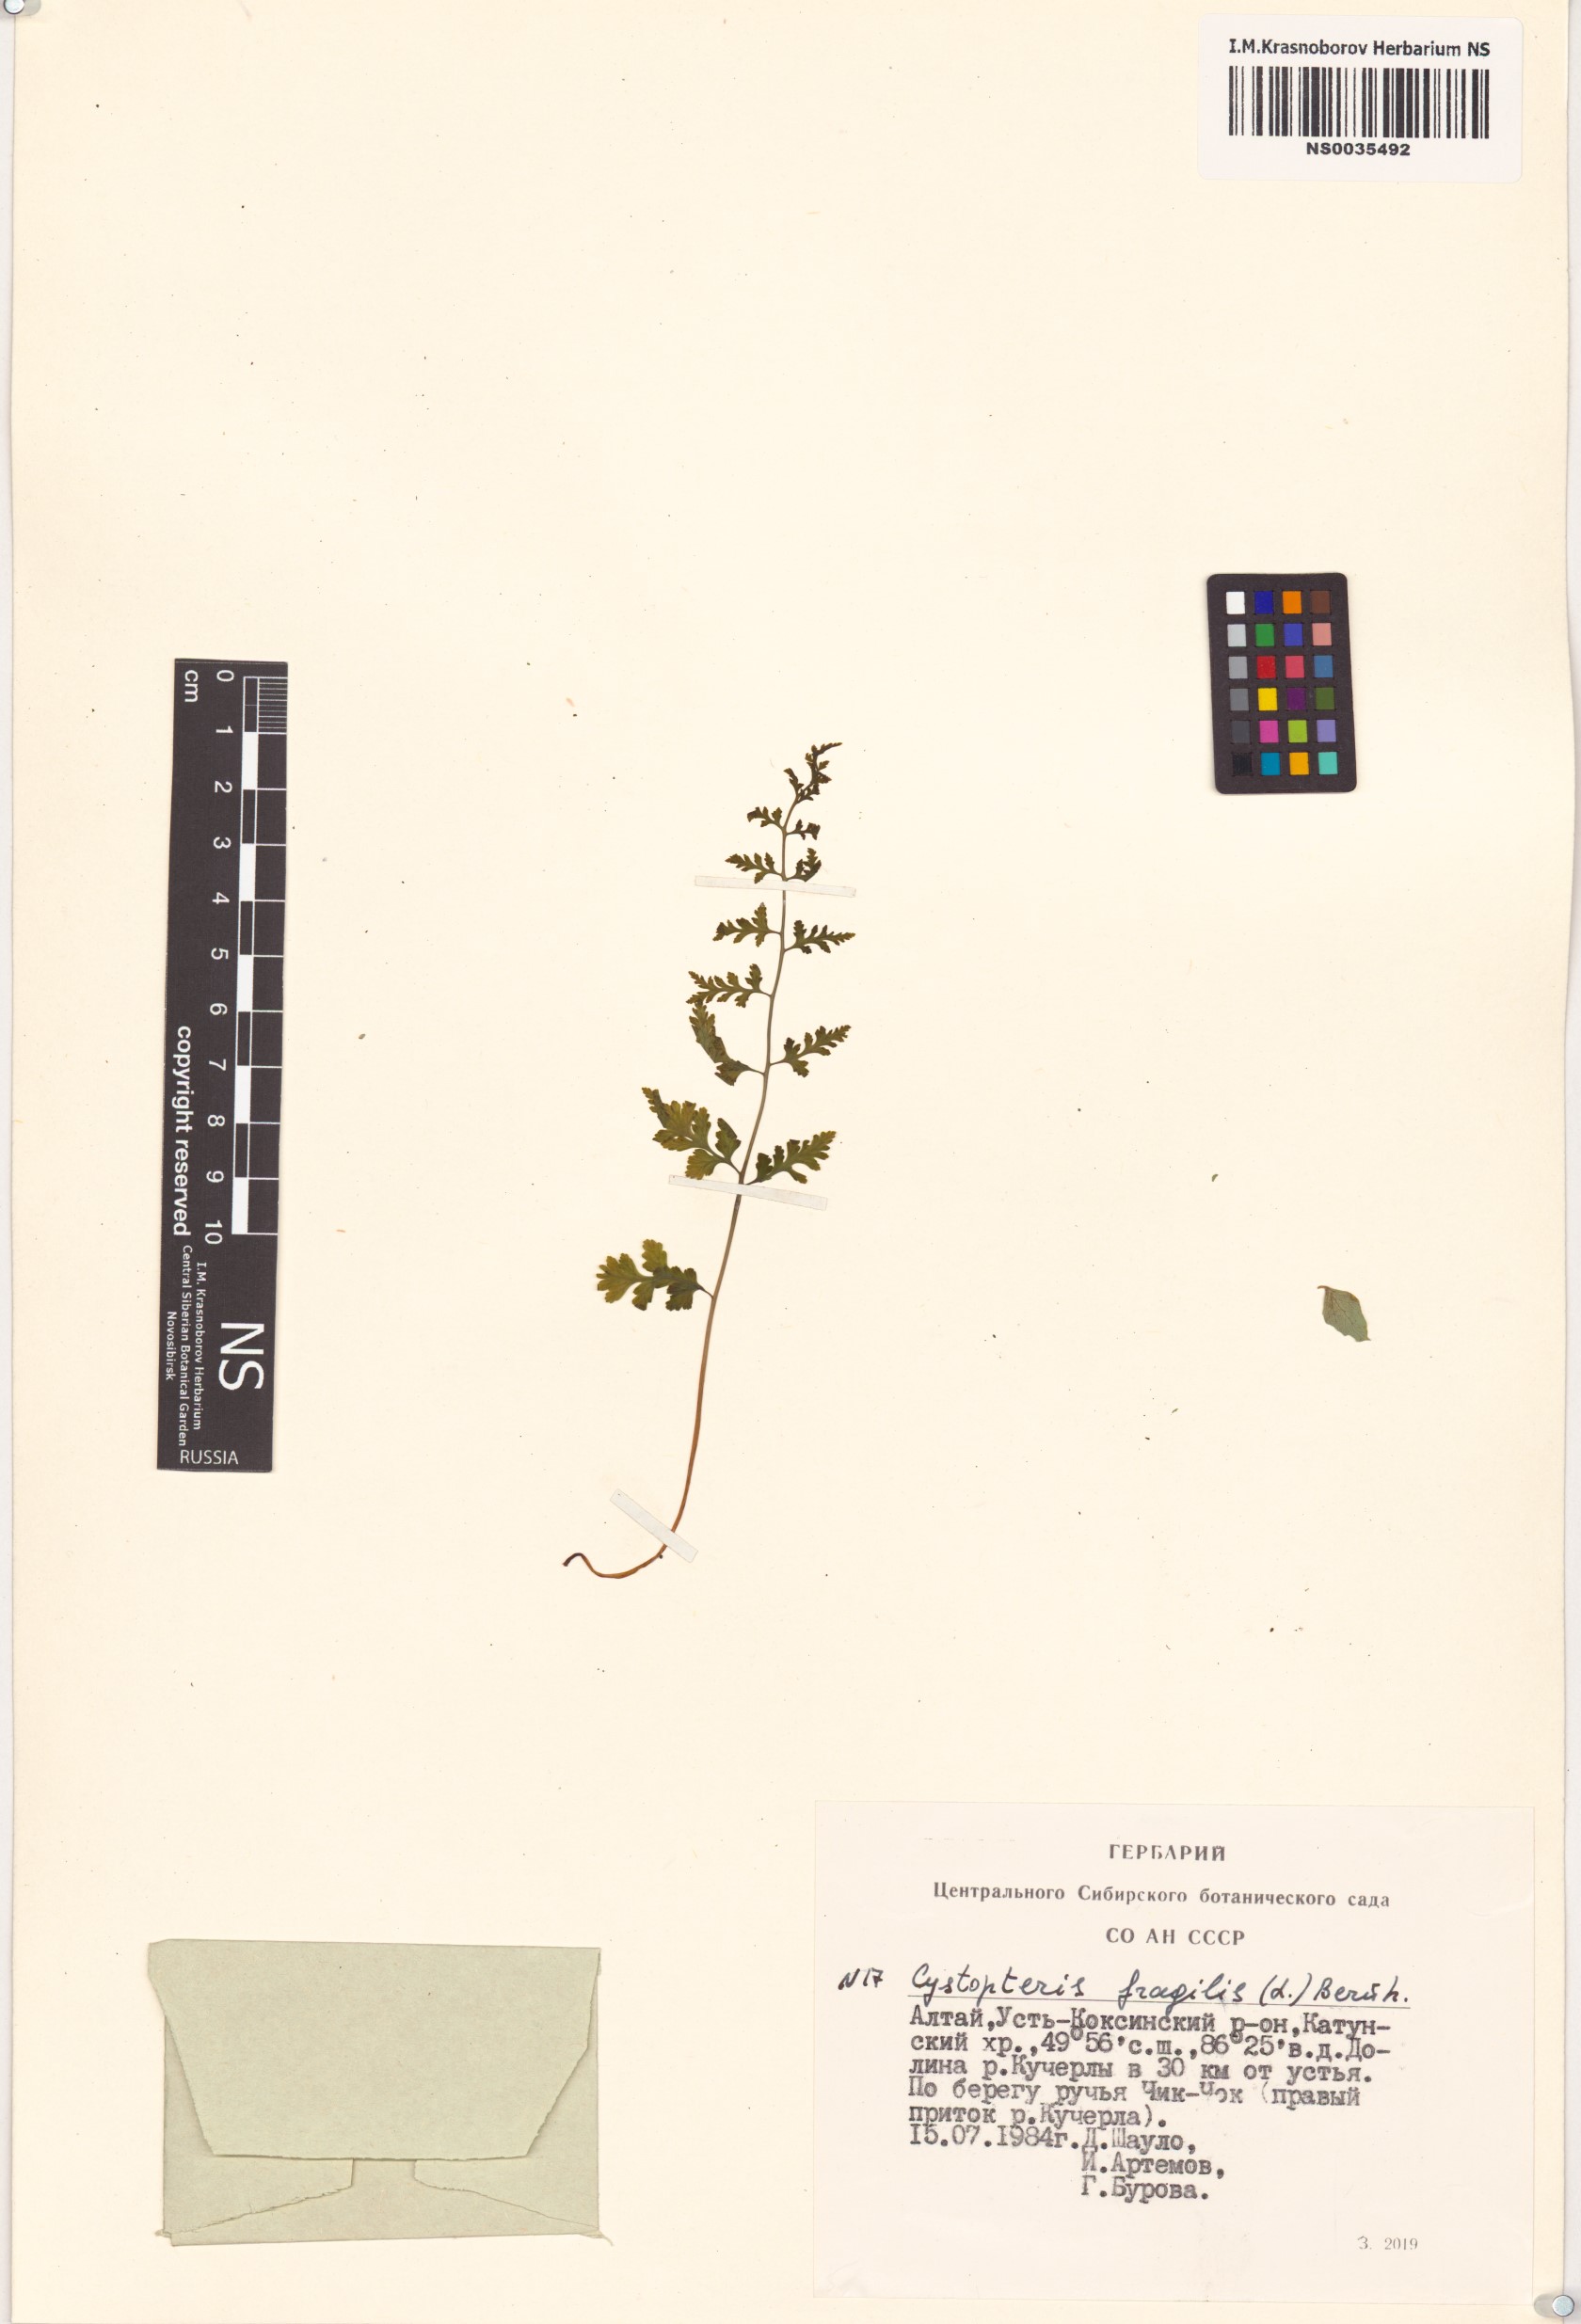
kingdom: Plantae
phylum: Tracheophyta
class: Polypodiopsida
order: Polypodiales
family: Cystopteridaceae
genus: Cystopteris
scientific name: Cystopteris fragilis
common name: Brittle bladder fern
